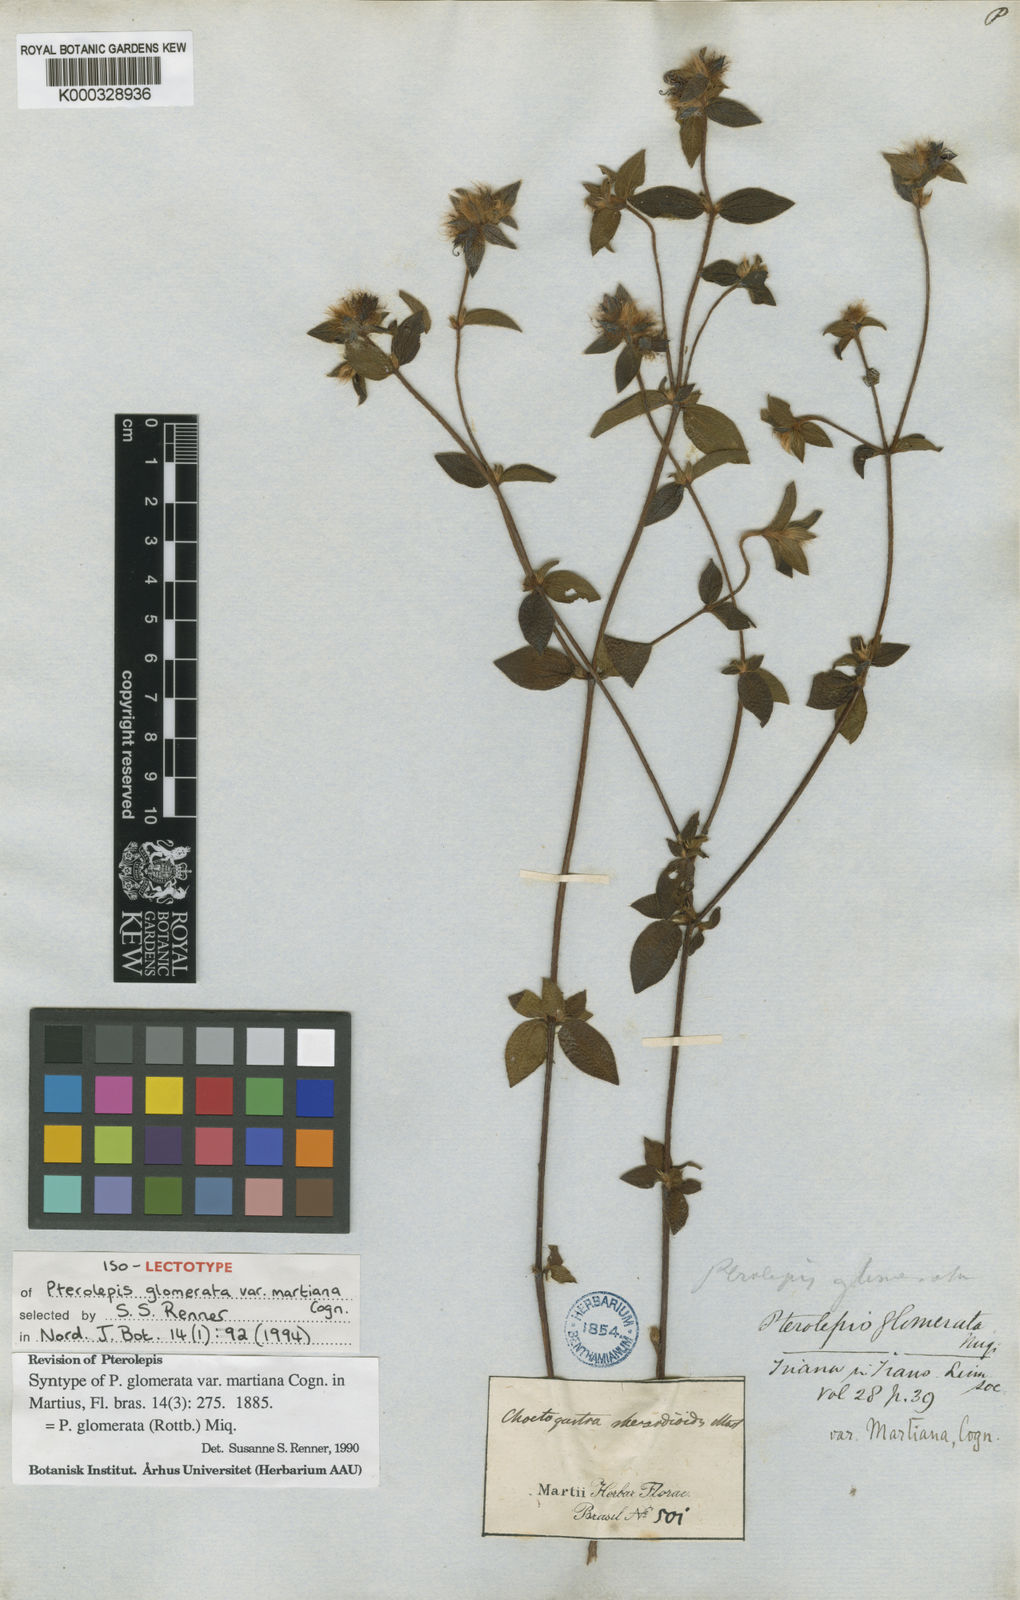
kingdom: Plantae
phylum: Tracheophyta
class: Magnoliopsida
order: Myrtales
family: Melastomataceae
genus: Pterolepis
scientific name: Pterolepis glomerata
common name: False meadowbeauty
